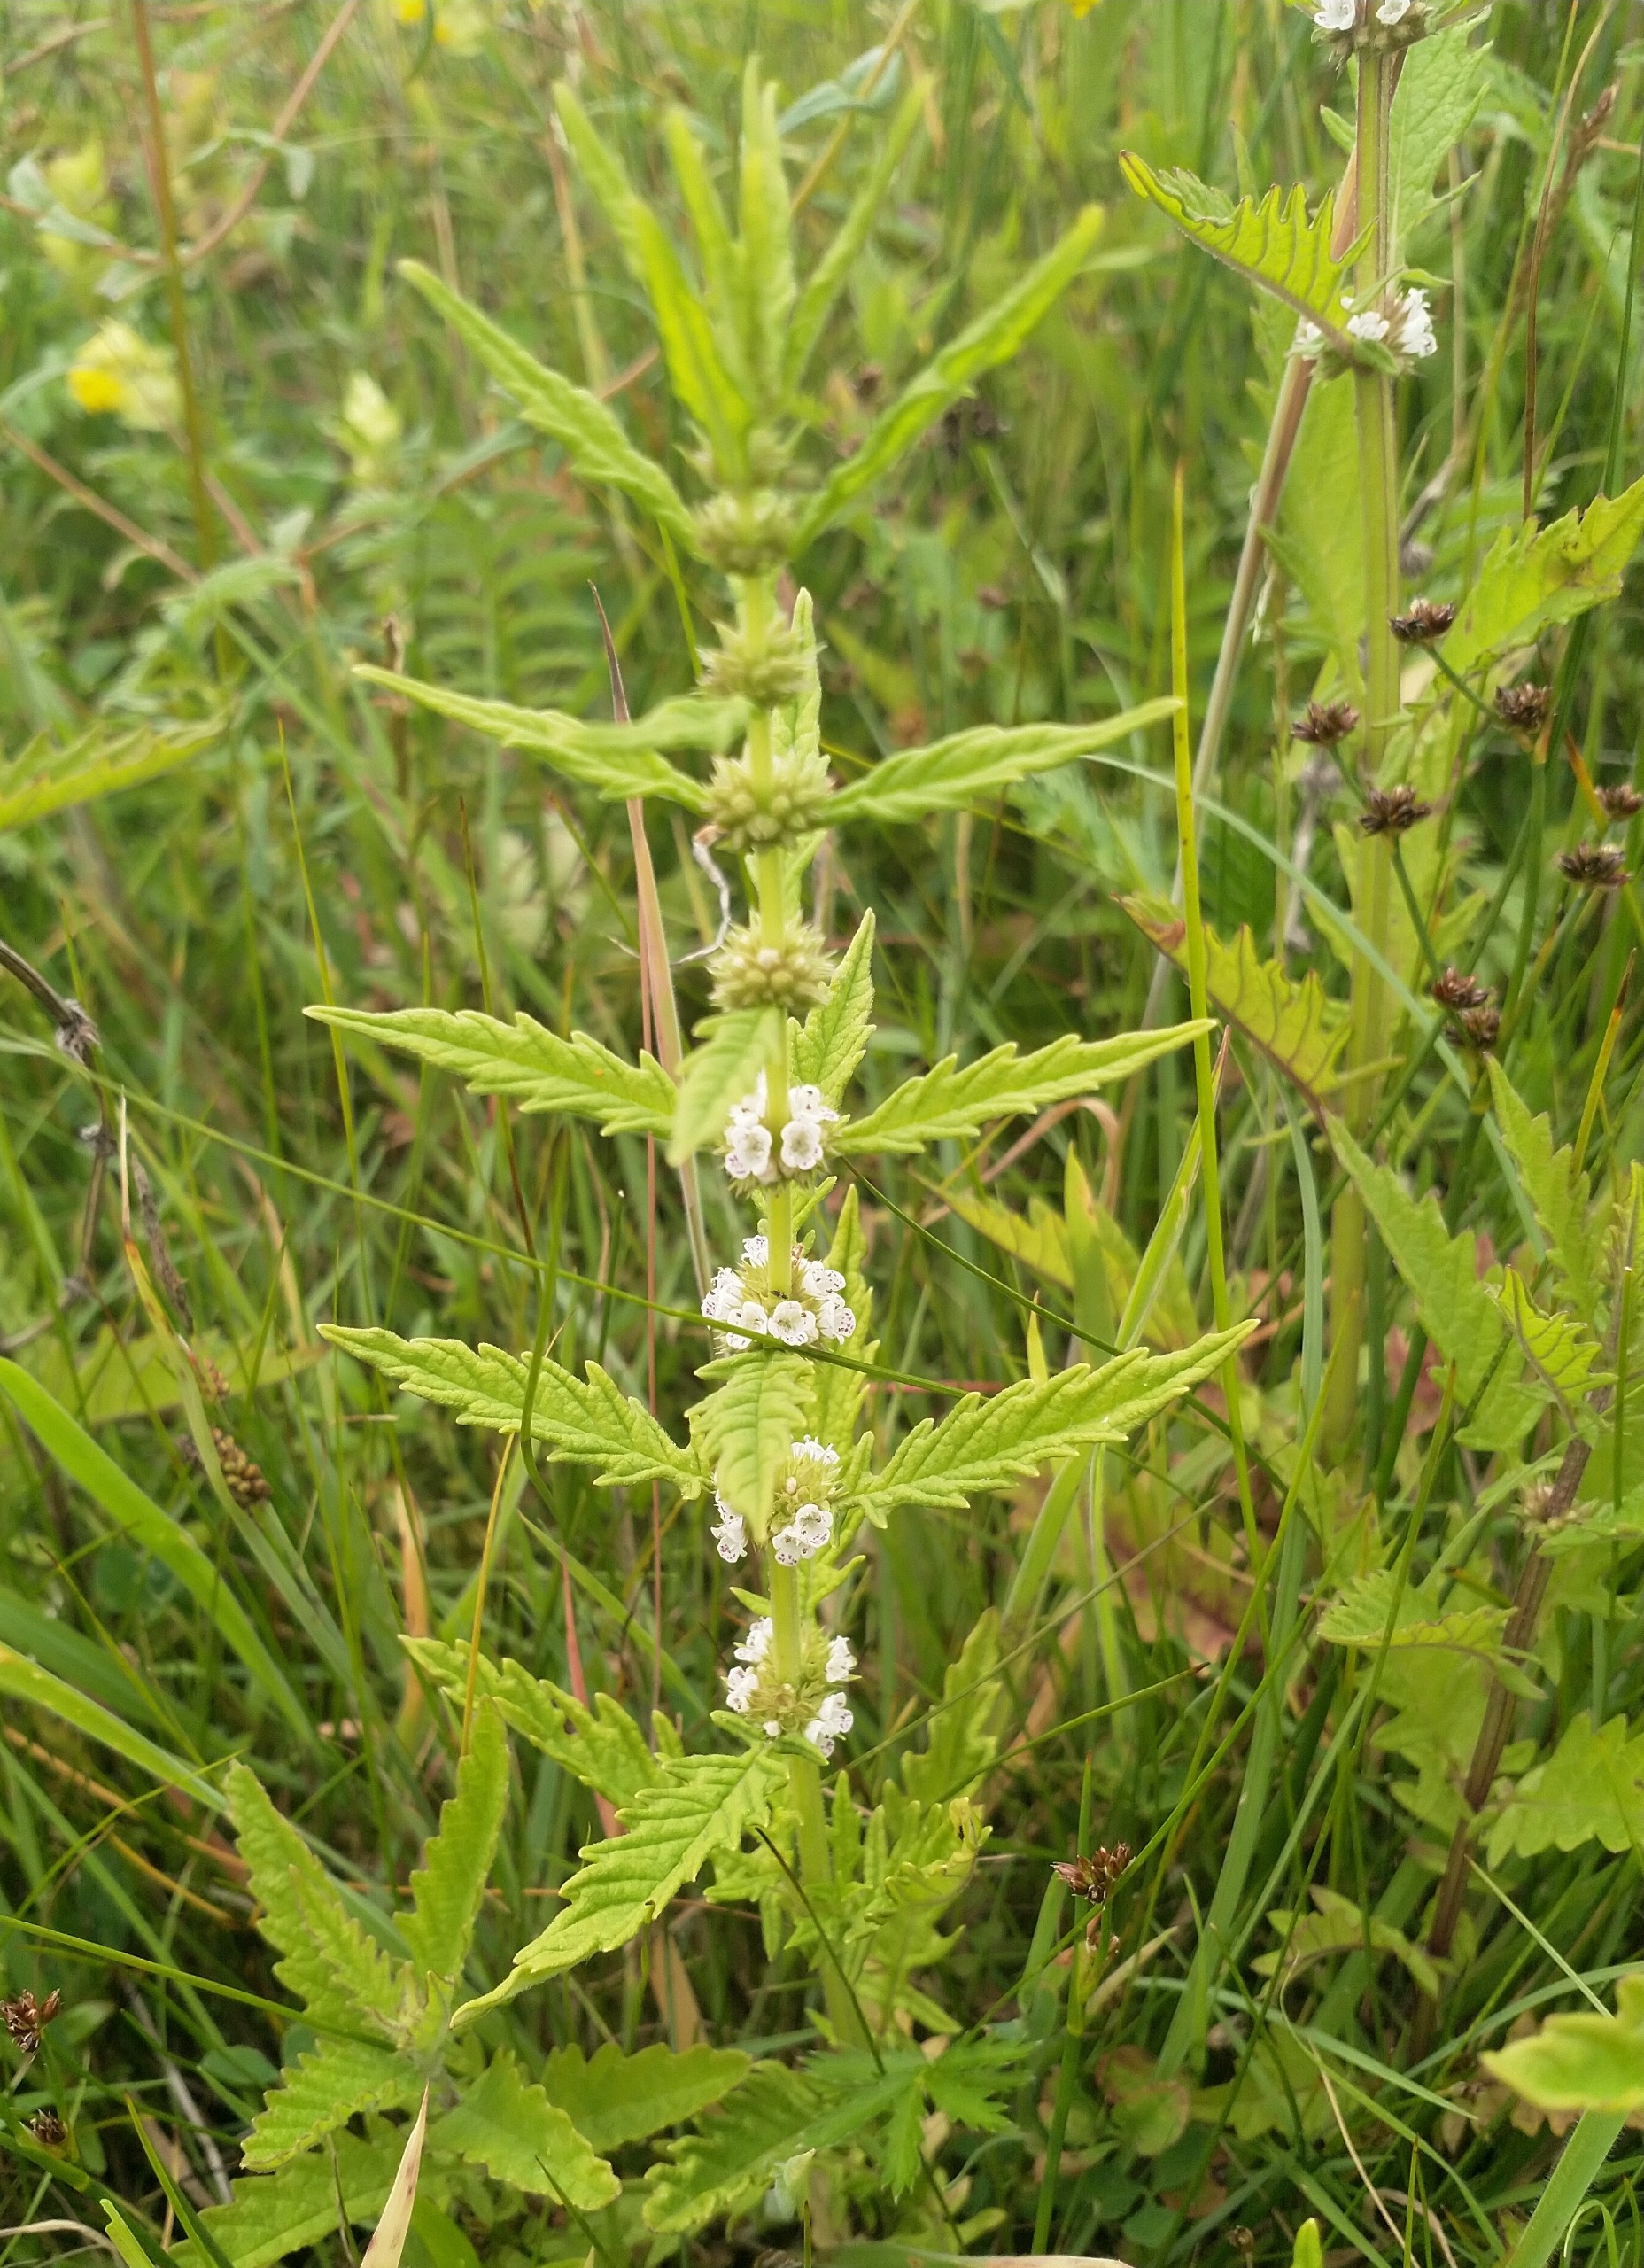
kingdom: Plantae
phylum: Tracheophyta
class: Magnoliopsida
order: Lamiales
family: Lamiaceae
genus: Lycopus
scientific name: Lycopus europaeus
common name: Sværtevæld
